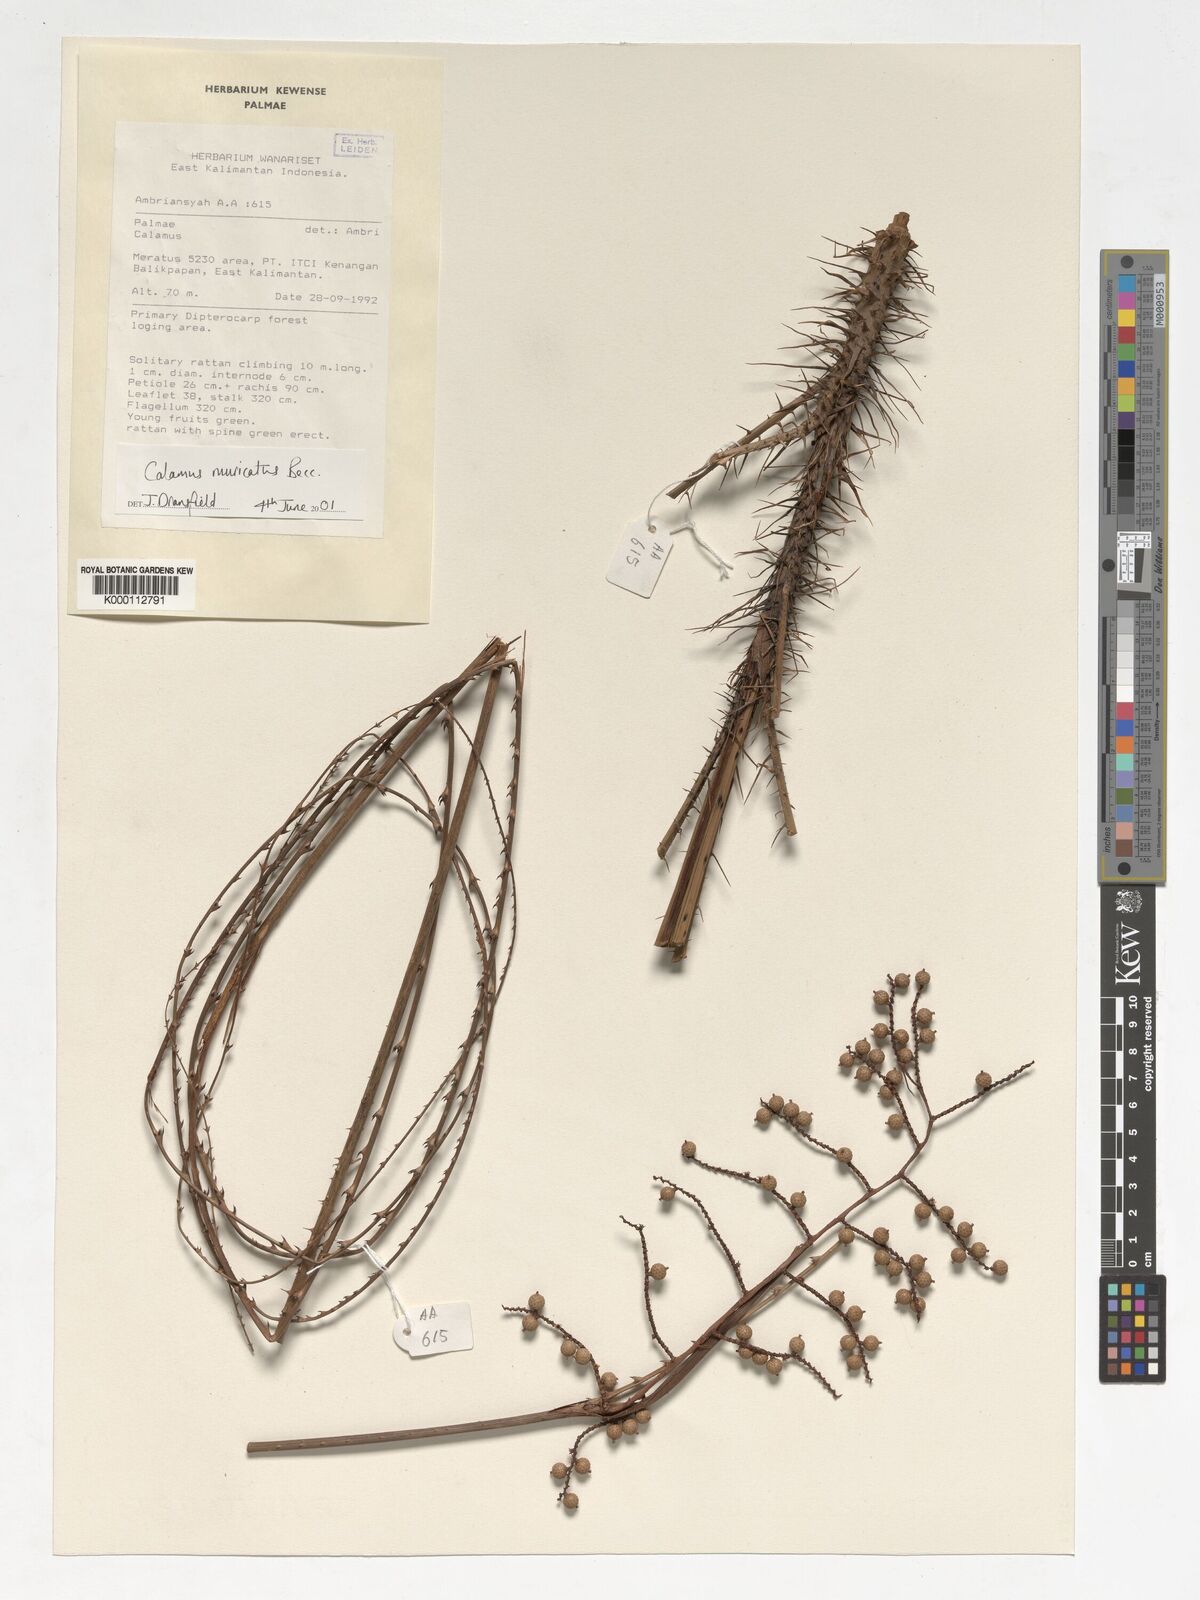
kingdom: Plantae
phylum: Tracheophyta
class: Liliopsida
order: Arecales
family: Arecaceae
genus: Calamus
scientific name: Calamus muricatus
